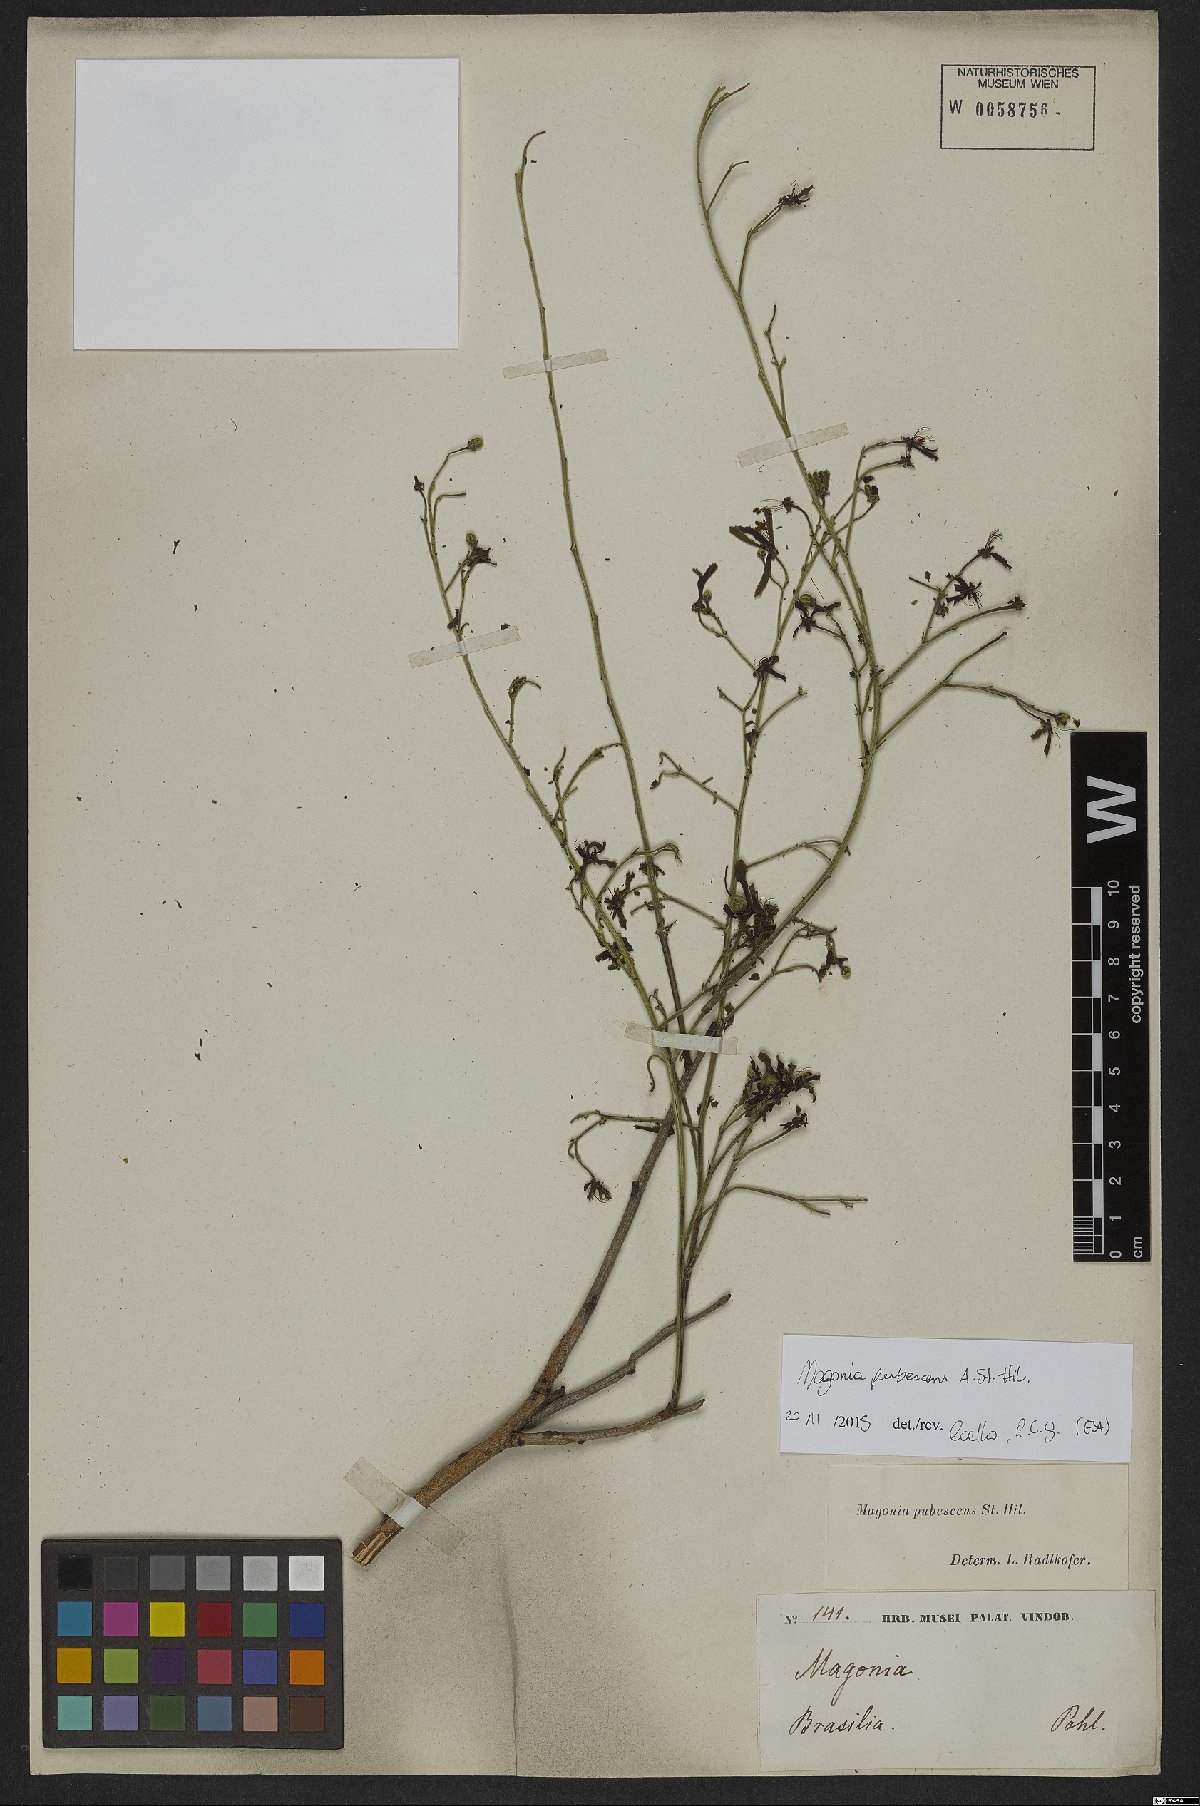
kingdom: Plantae
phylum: Tracheophyta
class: Magnoliopsida
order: Sapindales
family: Sapindaceae
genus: Magonia
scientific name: Magonia pubescens
